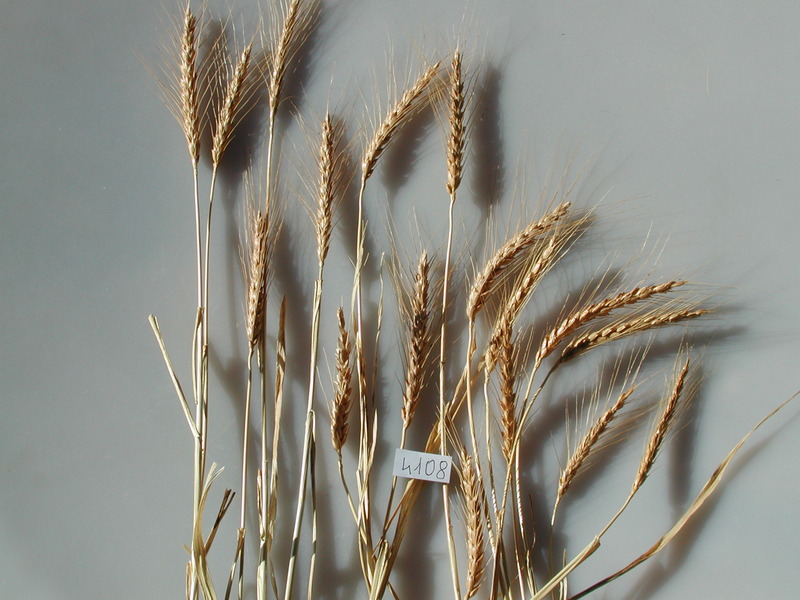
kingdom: Plantae
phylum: Tracheophyta
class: Liliopsida
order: Poales
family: Poaceae
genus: Triticum
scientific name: Triticum aestivum
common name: Wheat
